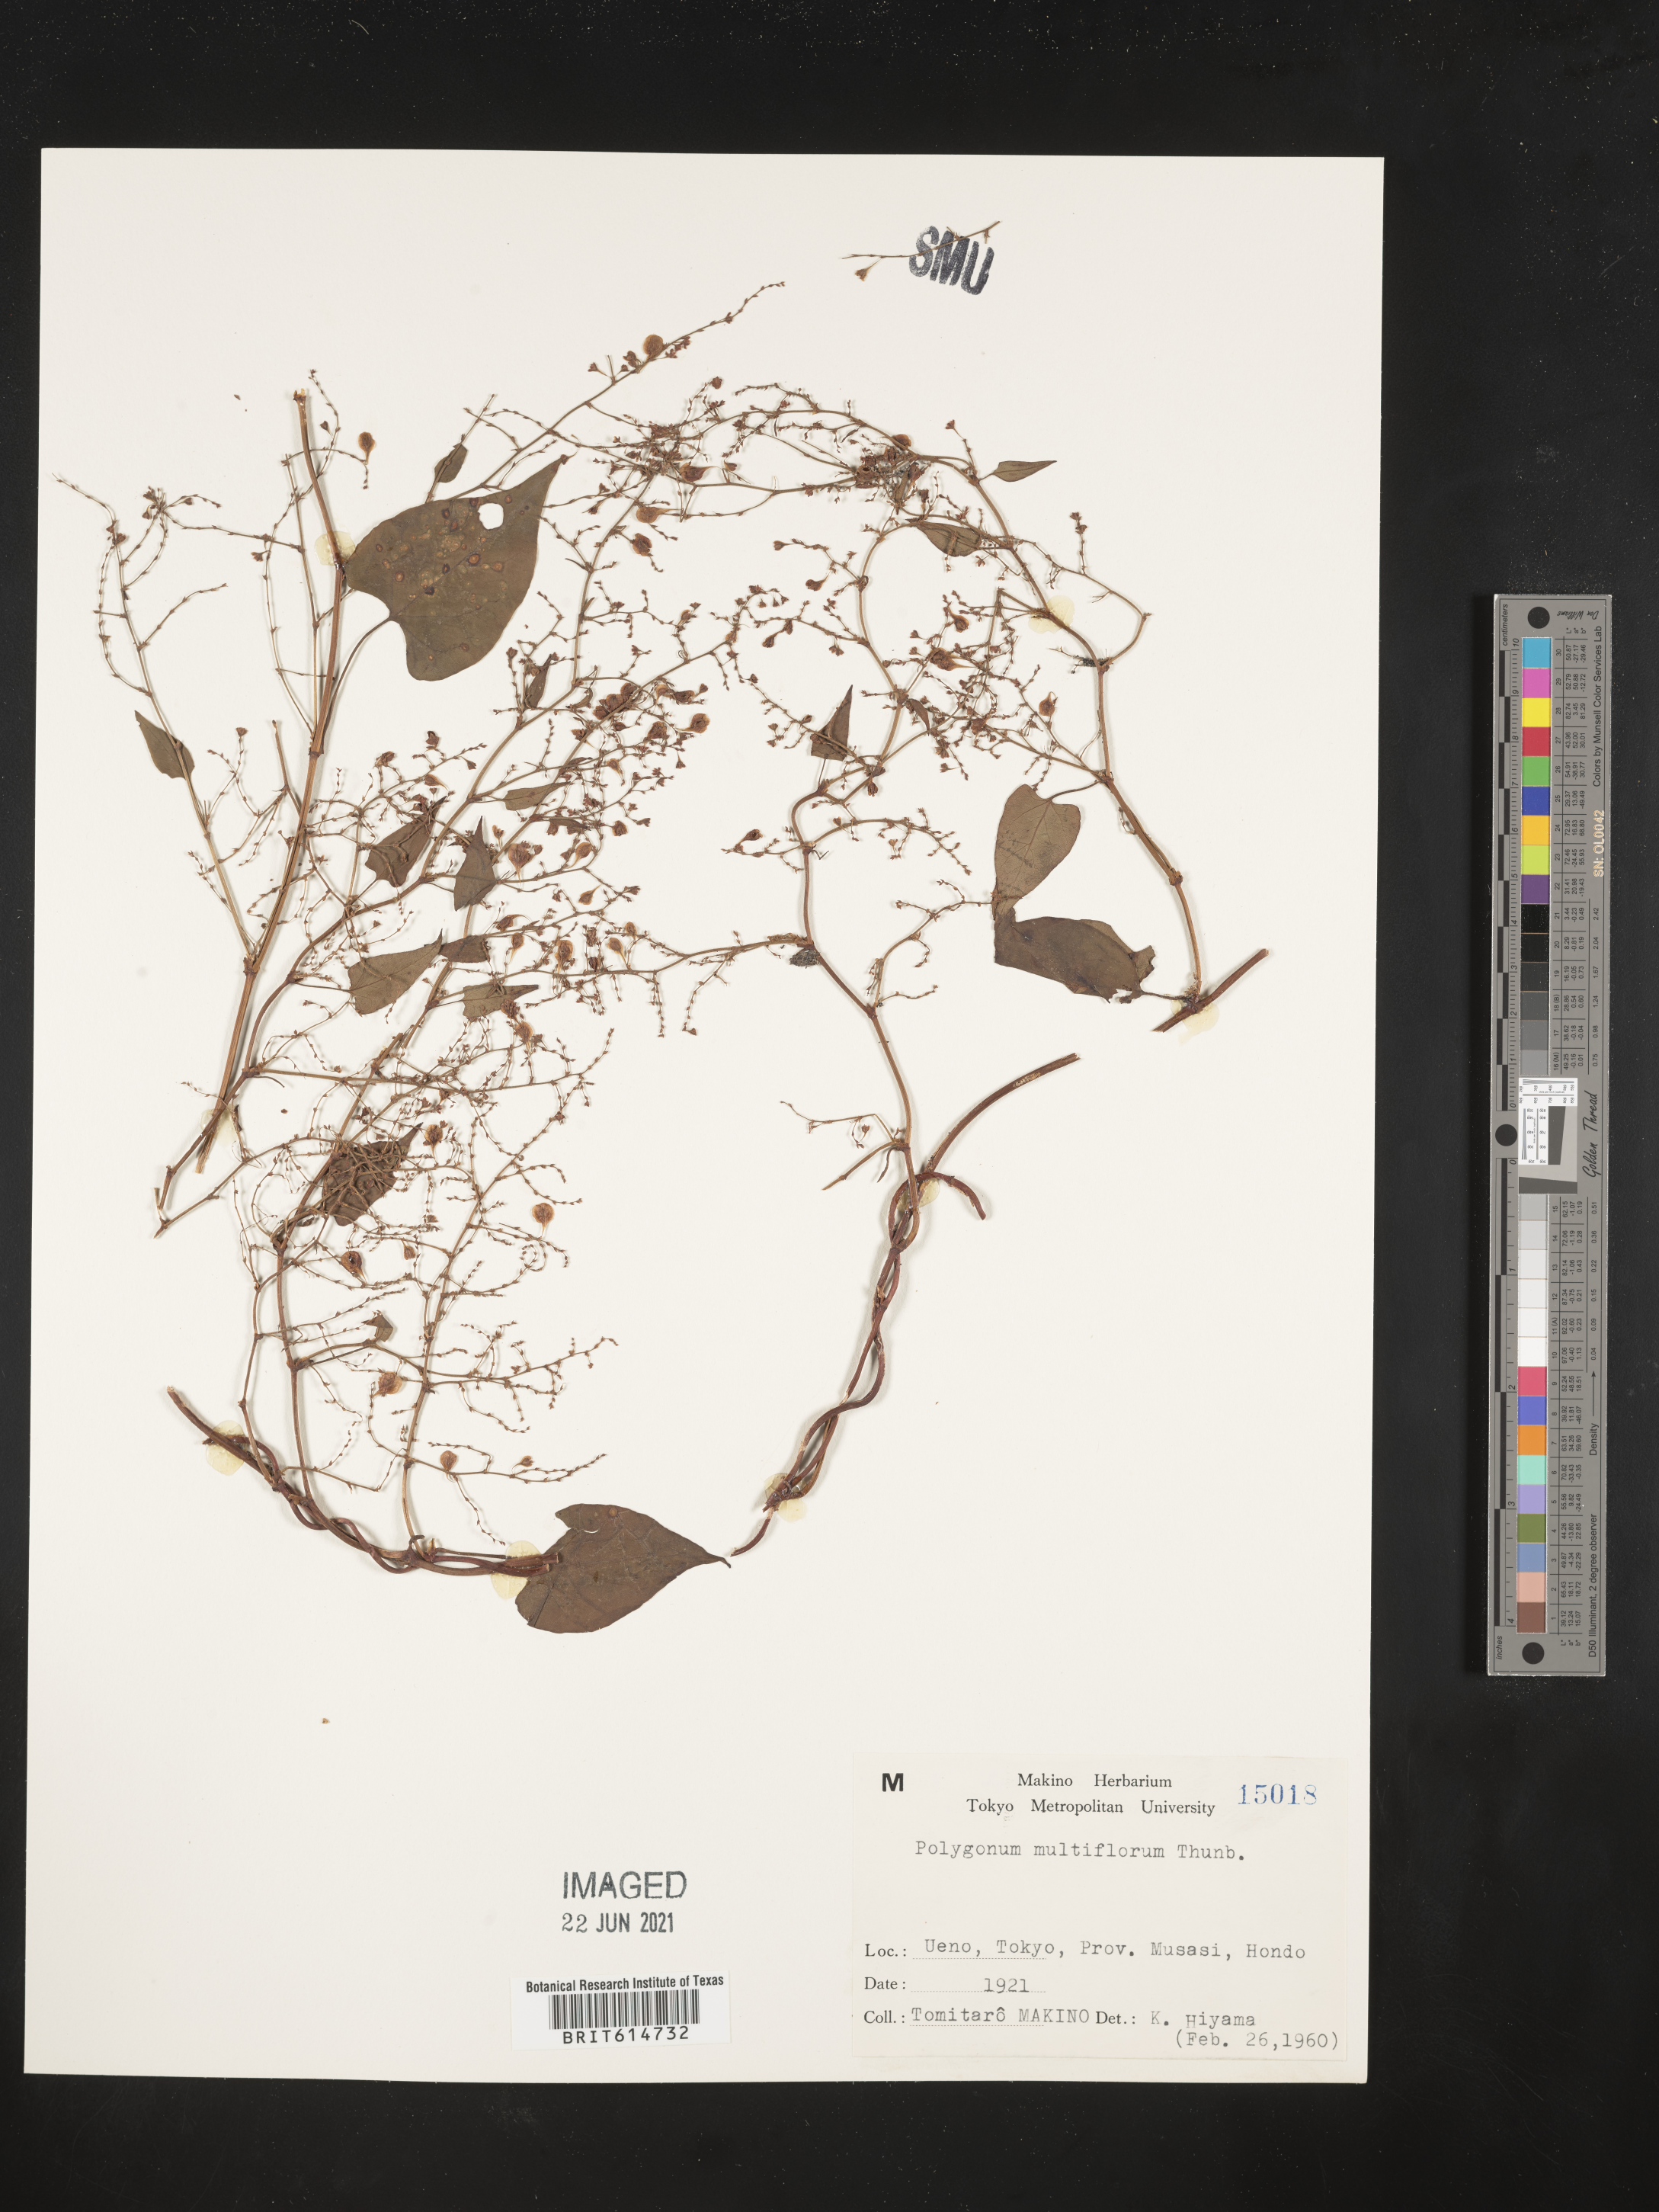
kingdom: Plantae
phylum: Tracheophyta
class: Magnoliopsida
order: Caryophyllales
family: Polygonaceae
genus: Reynoutria
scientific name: Reynoutria multiflora
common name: Chinese fleeceflower
